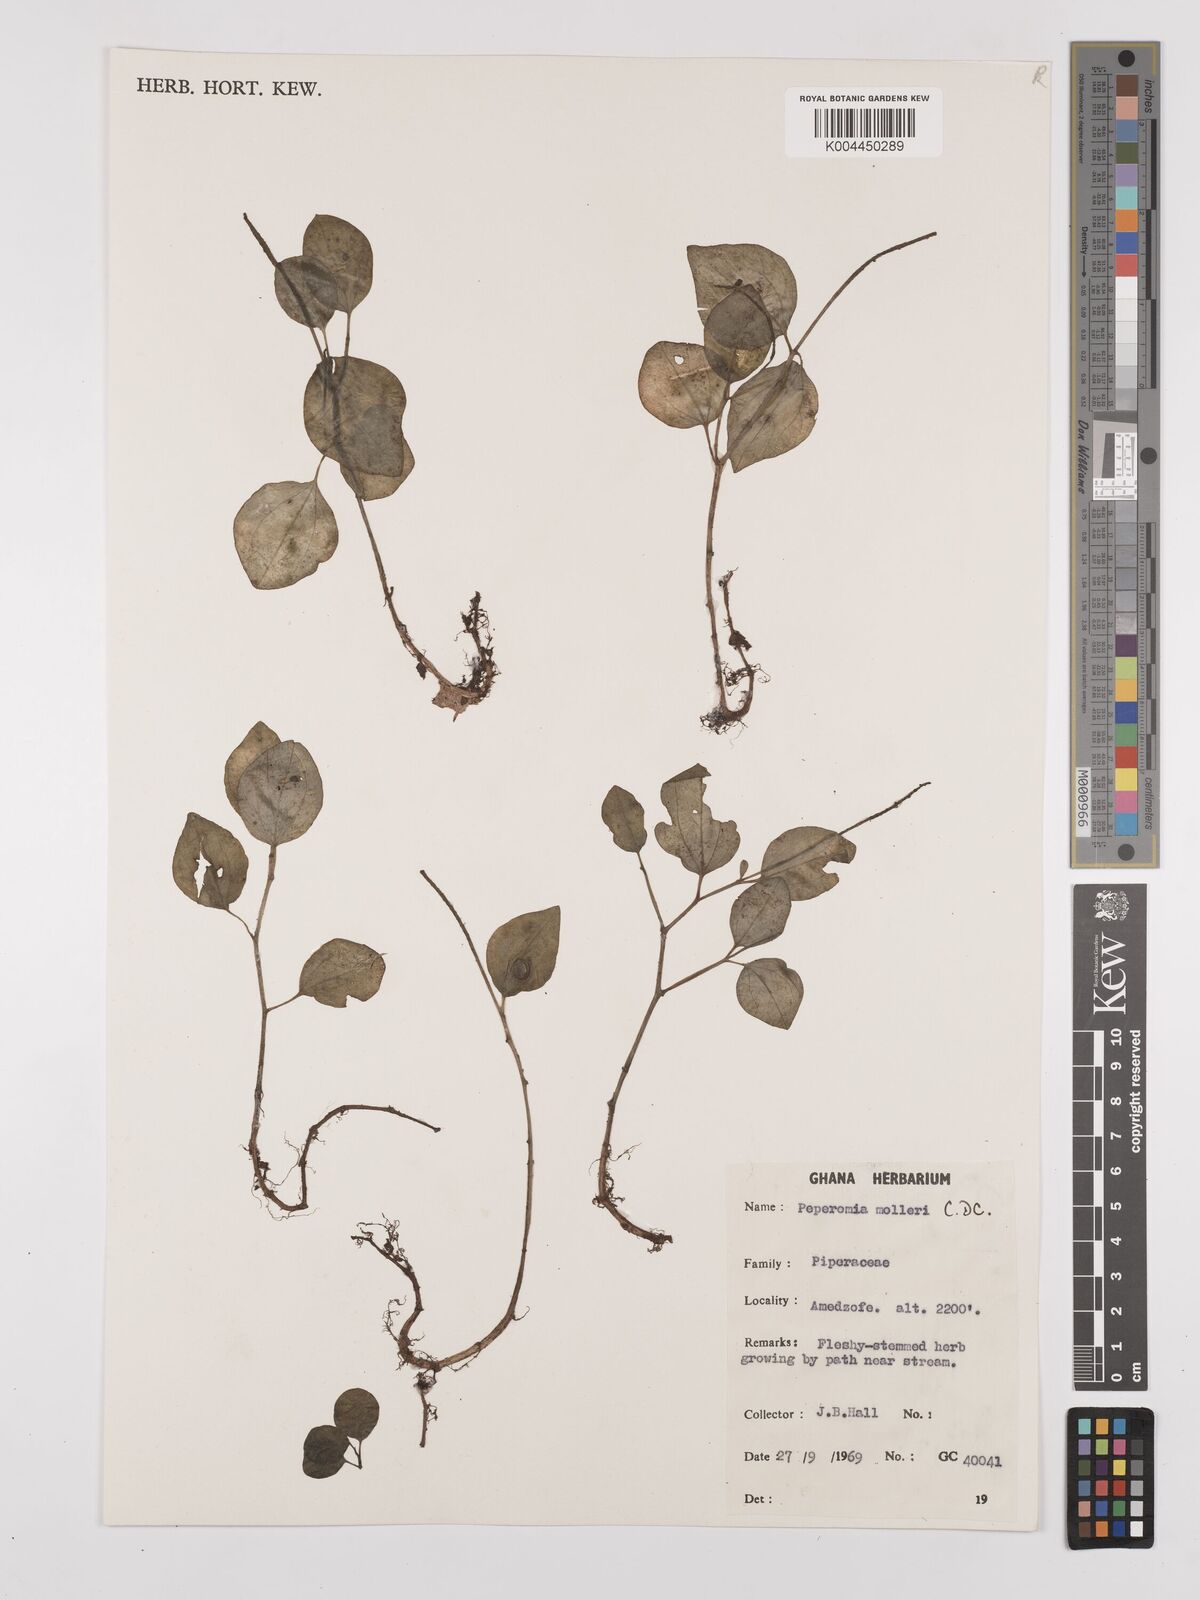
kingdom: Plantae
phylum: Tracheophyta
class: Magnoliopsida
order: Piperales
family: Piperaceae
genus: Peperomia
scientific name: Peperomia molleri
